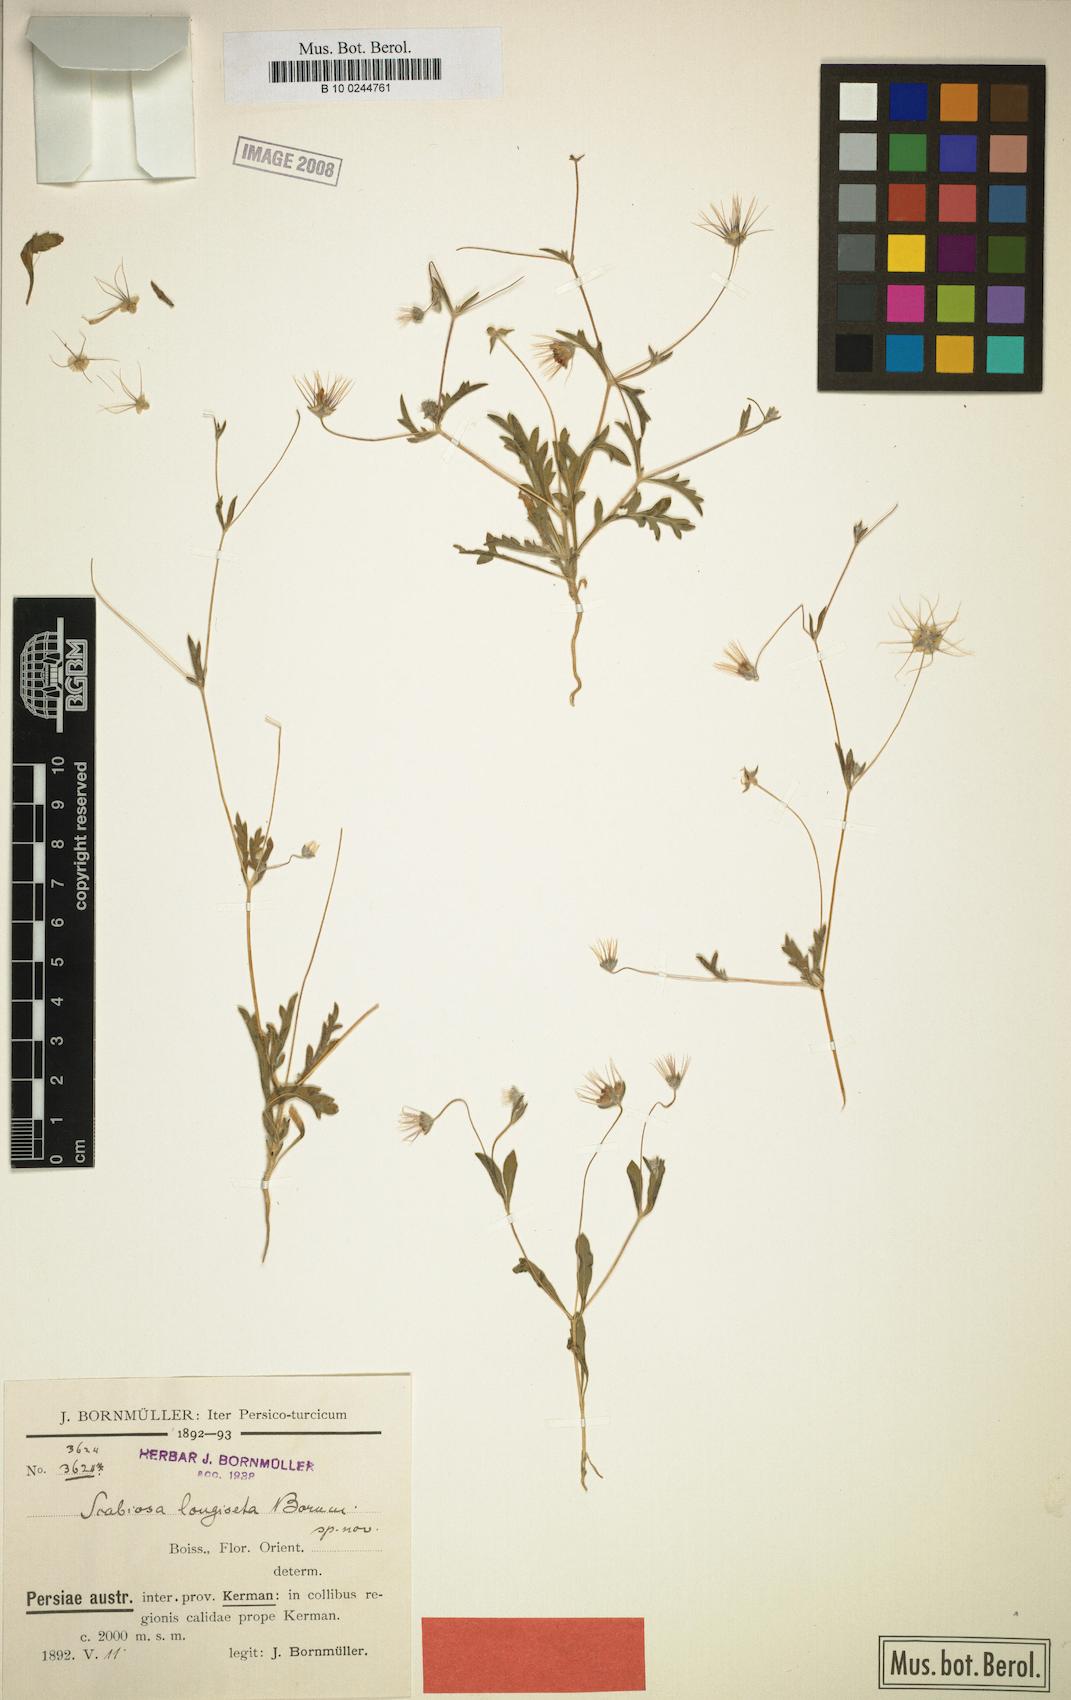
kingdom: Plantae
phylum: Tracheophyta
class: Magnoliopsida
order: Dipsacales
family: Caprifoliaceae
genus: Lomelosia
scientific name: Lomelosia olivieri
